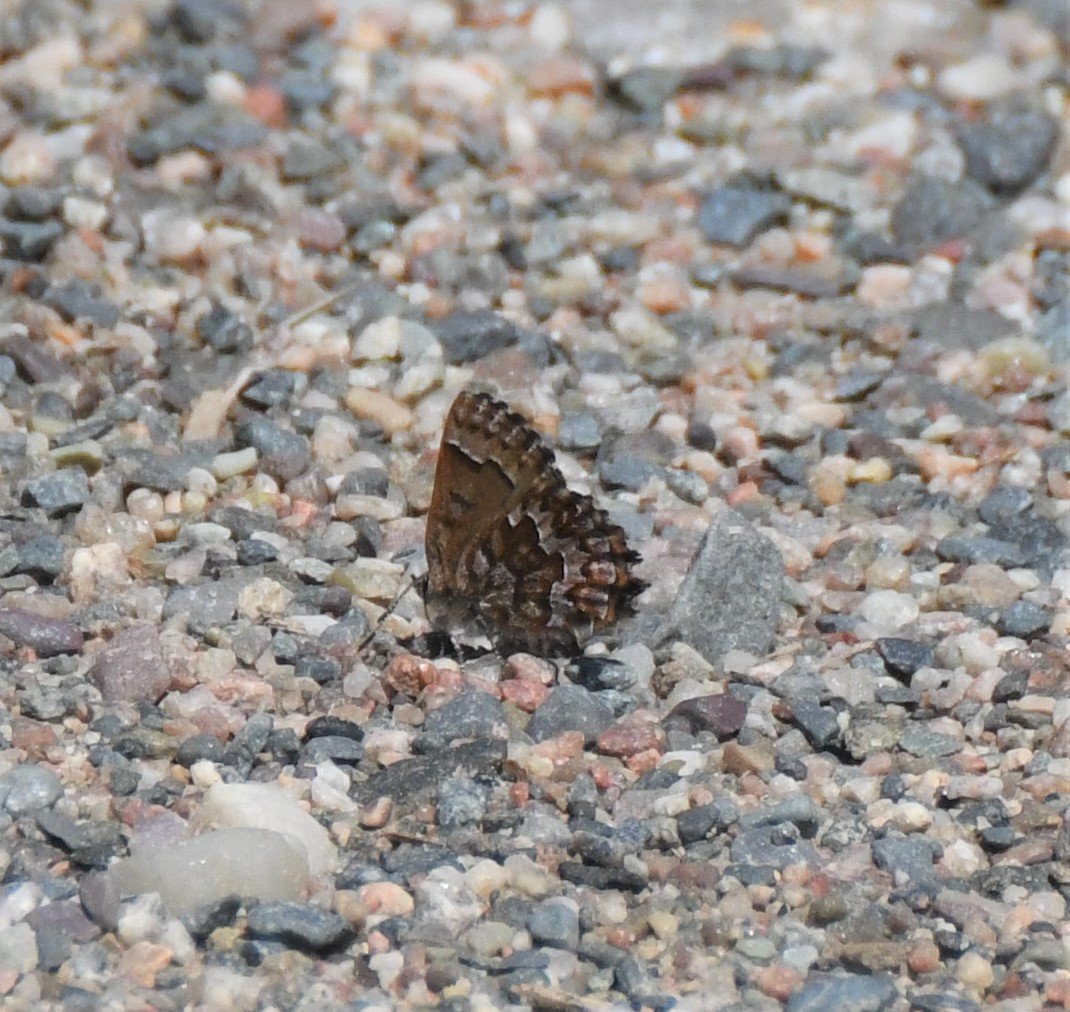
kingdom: Animalia
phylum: Arthropoda
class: Insecta
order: Lepidoptera
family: Lycaenidae
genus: Incisalia
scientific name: Incisalia niphon
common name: Eastern Pine Elfin
